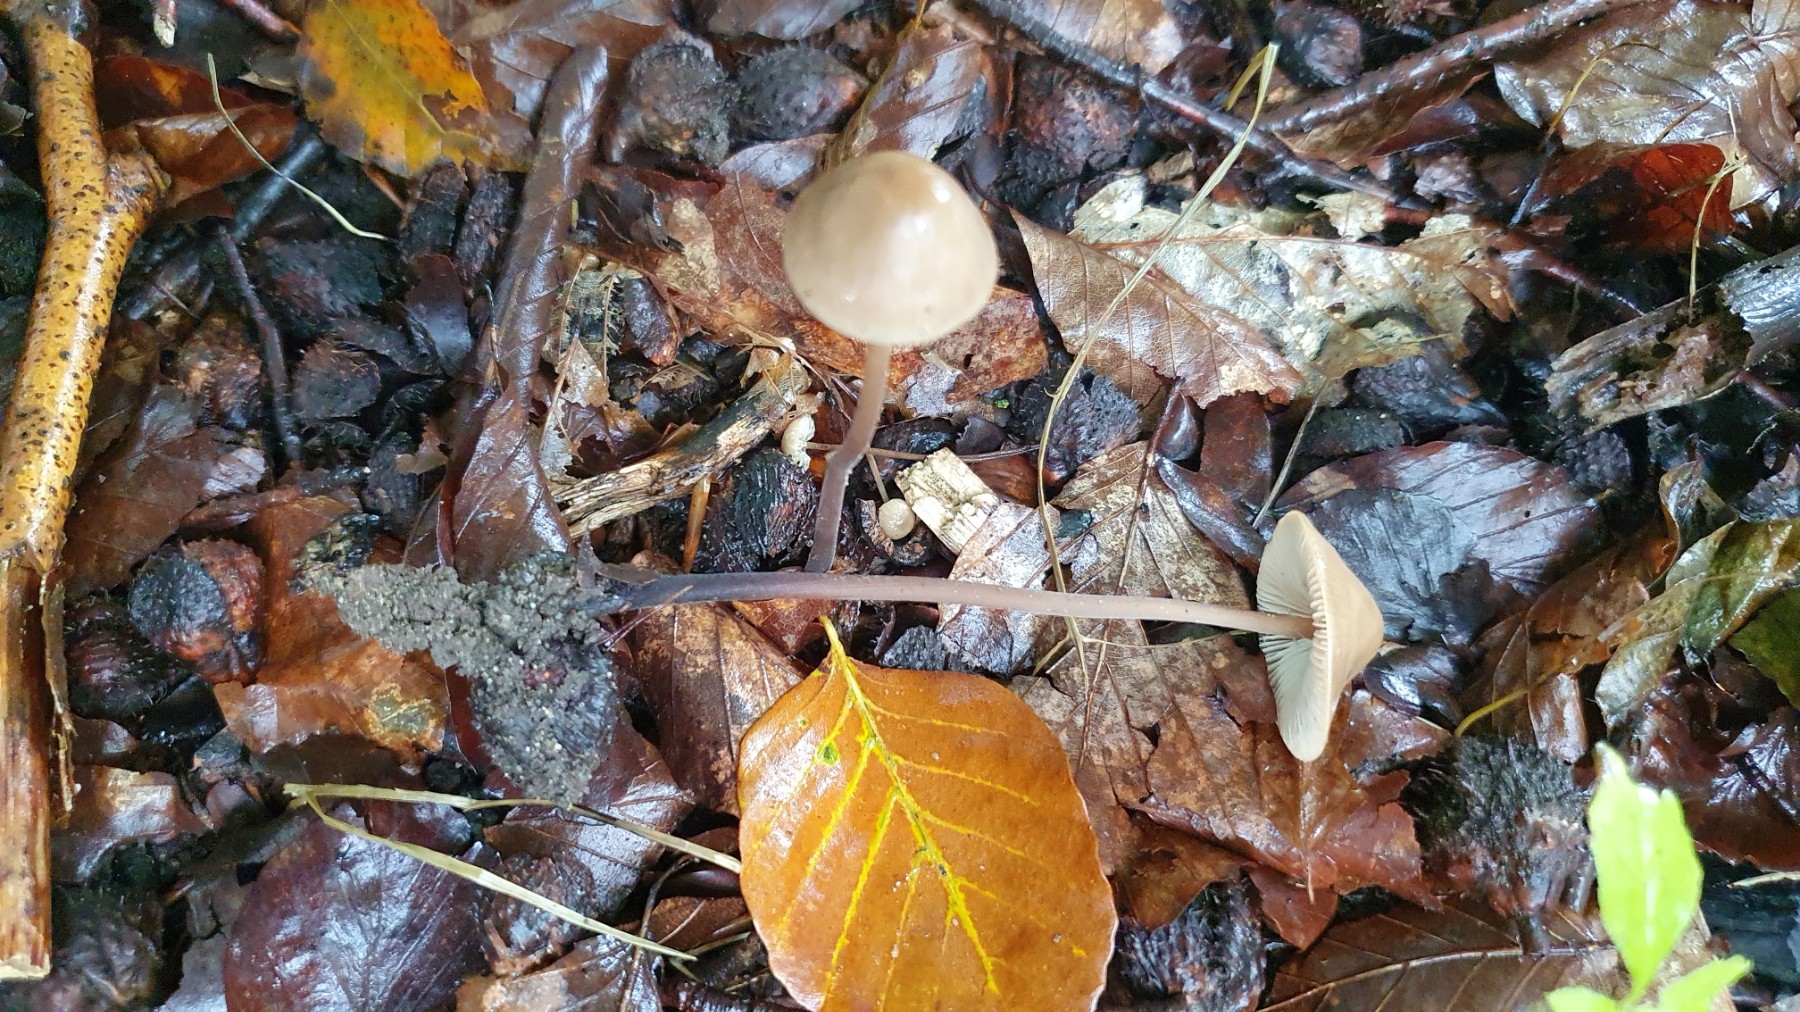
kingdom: Fungi
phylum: Basidiomycota
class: Agaricomycetes
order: Agaricales
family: Omphalotaceae
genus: Mycetinis
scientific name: Mycetinis alliaceus
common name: stor løghat
